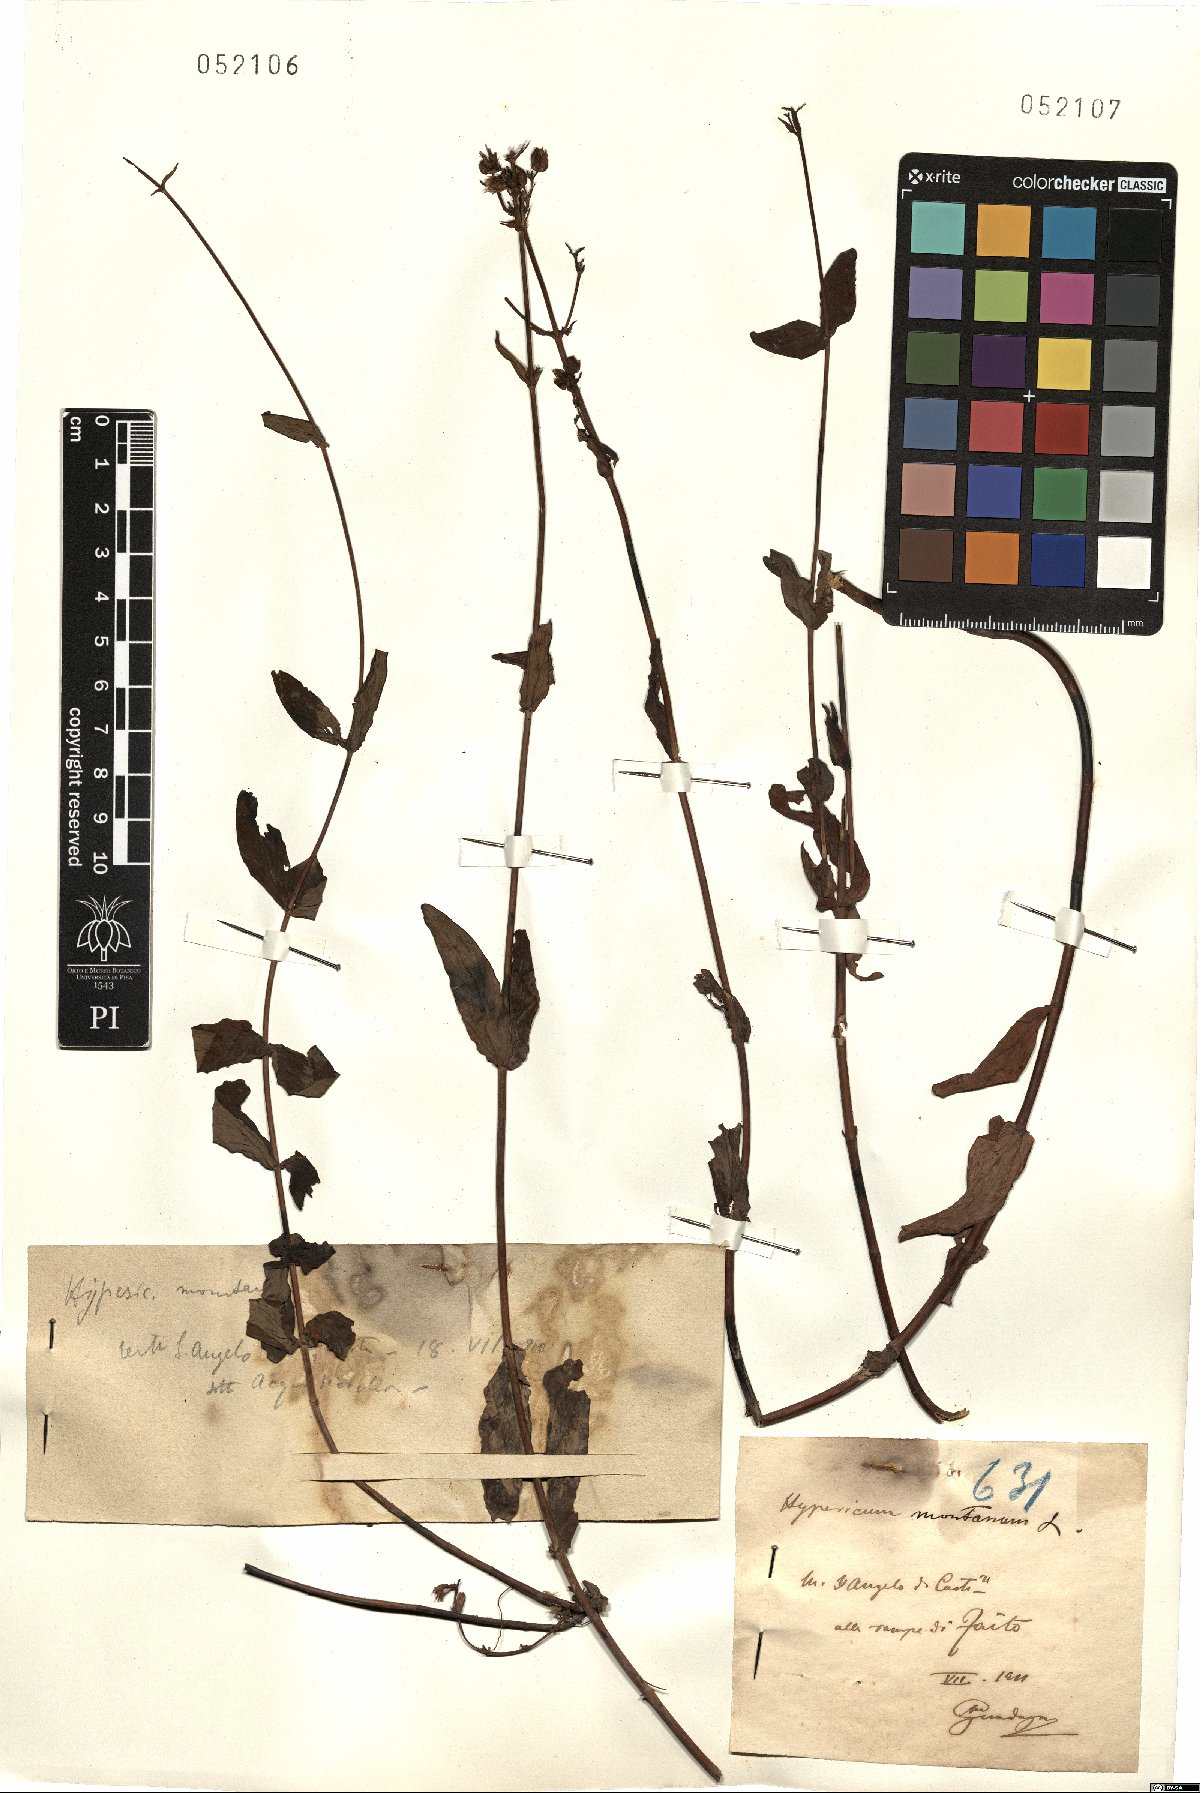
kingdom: Plantae
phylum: Tracheophyta
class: Magnoliopsida
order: Malpighiales
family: Hypericaceae
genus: Hypericum
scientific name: Hypericum montanum
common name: Pale st. john's-wort
